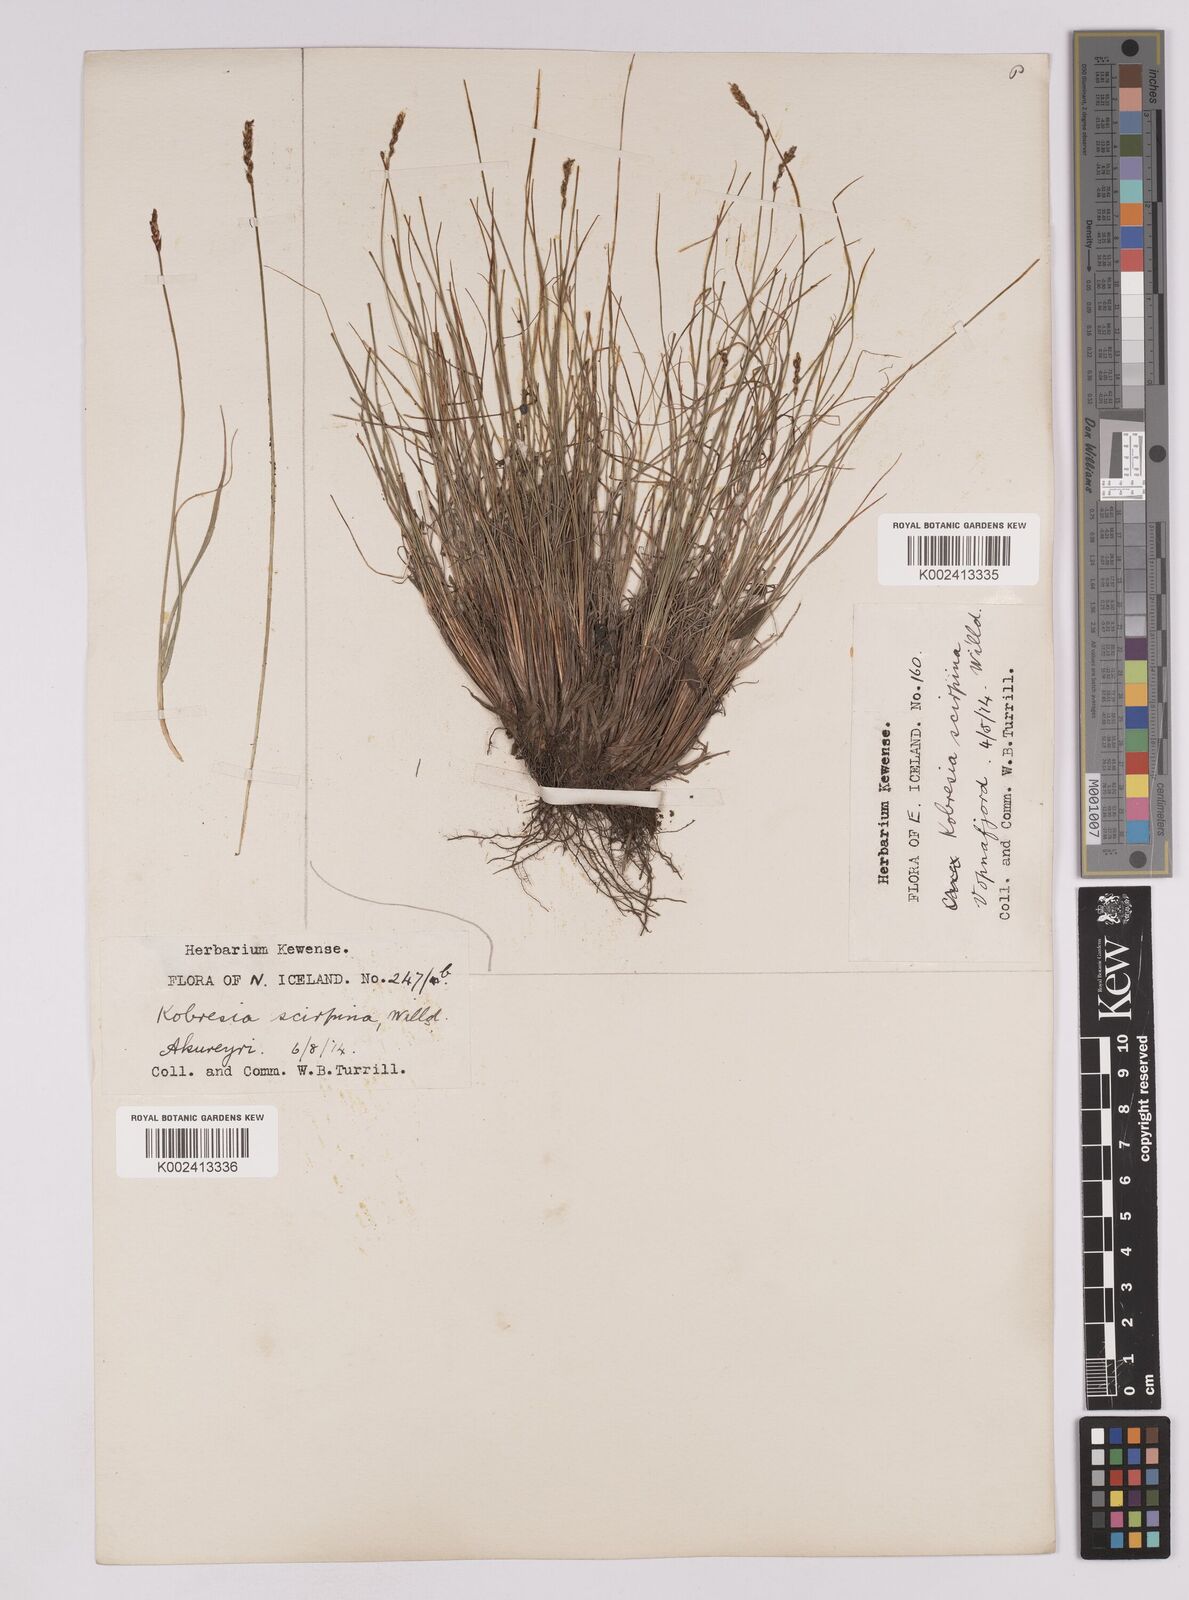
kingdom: Plantae
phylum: Tracheophyta
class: Liliopsida
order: Poales
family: Cyperaceae
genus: Carex
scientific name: Carex myosuroides
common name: Bellard's bog sedge
